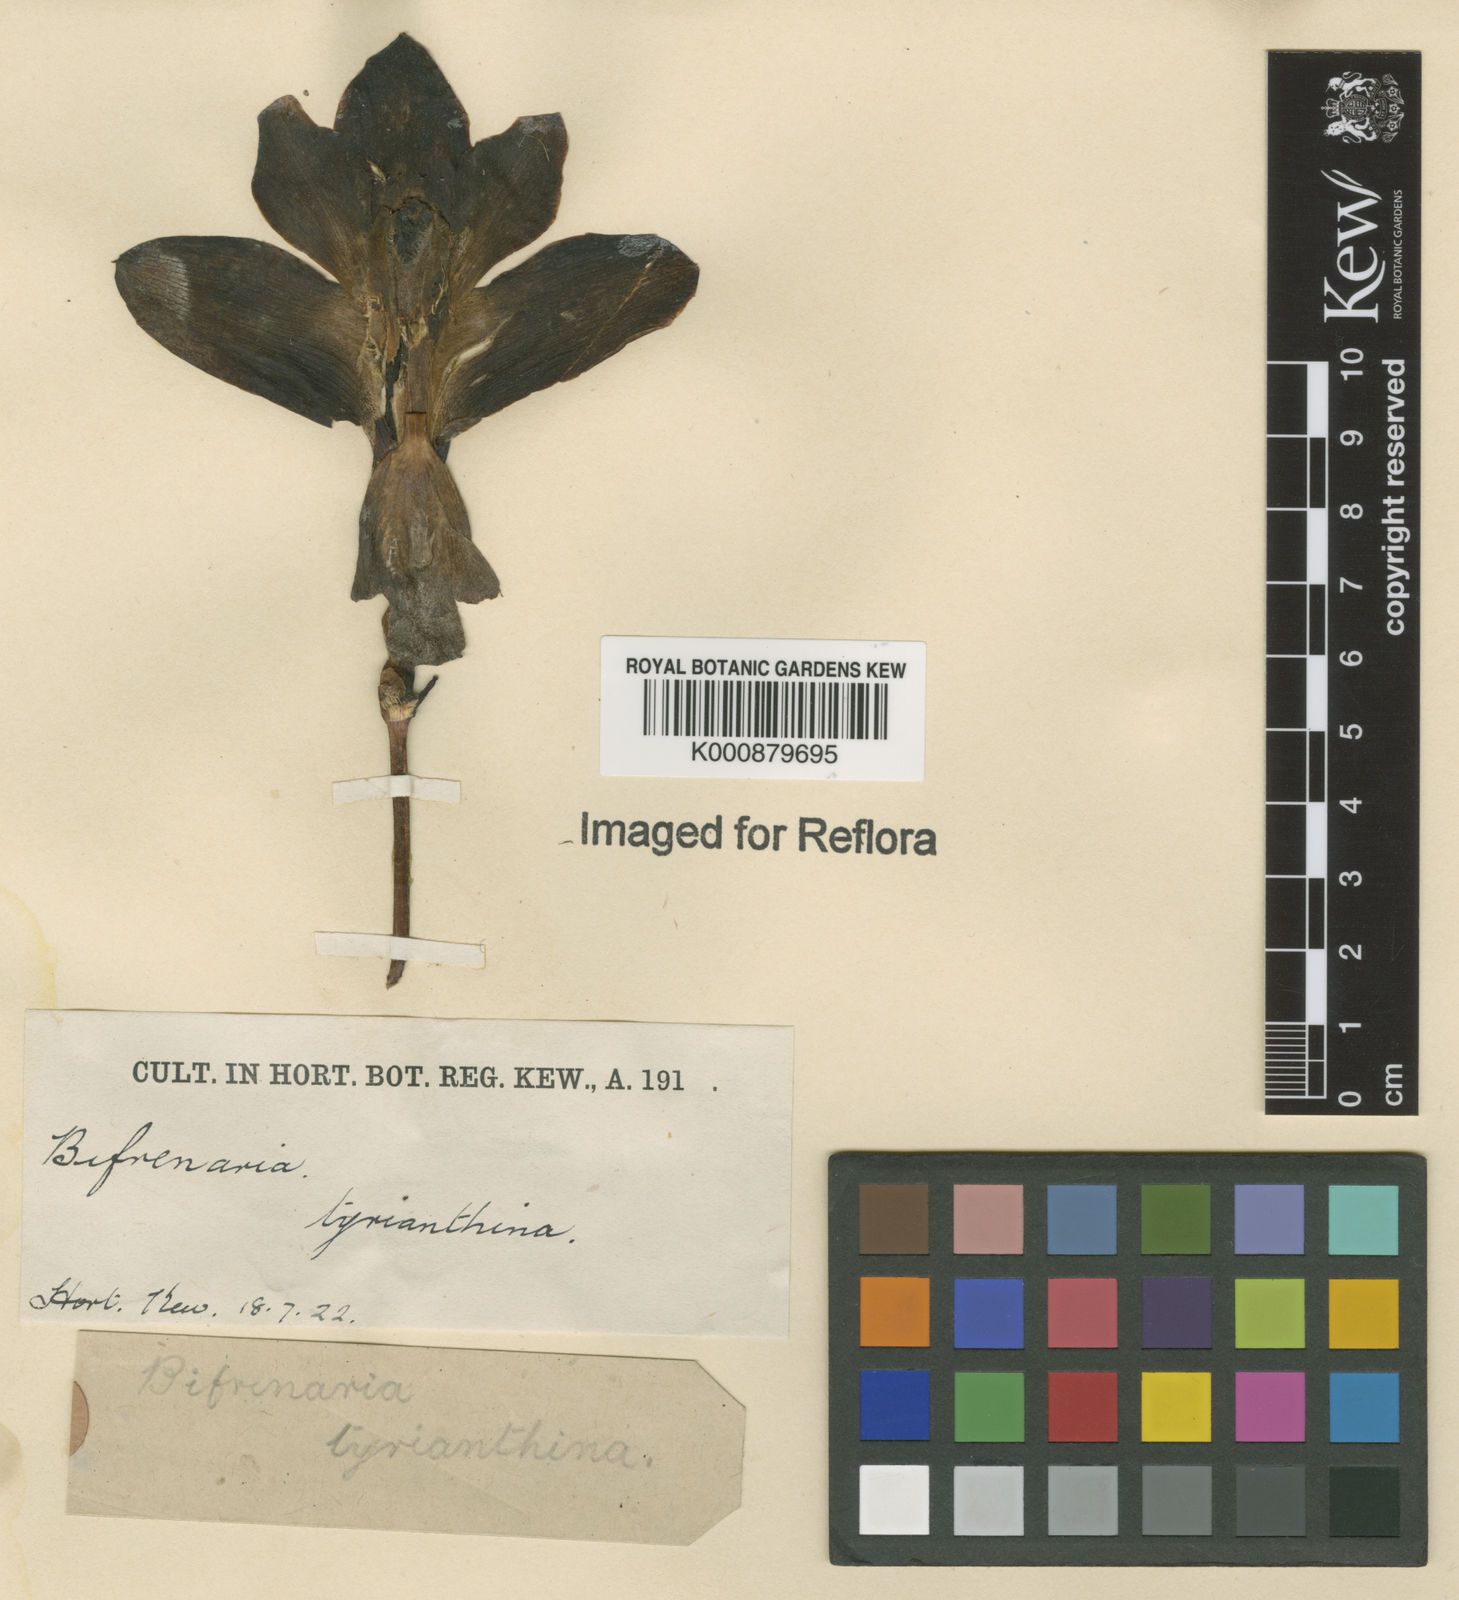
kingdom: Plantae
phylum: Tracheophyta
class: Liliopsida
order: Asparagales
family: Orchidaceae
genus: Bifrenaria
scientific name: Bifrenaria tyrianthina
